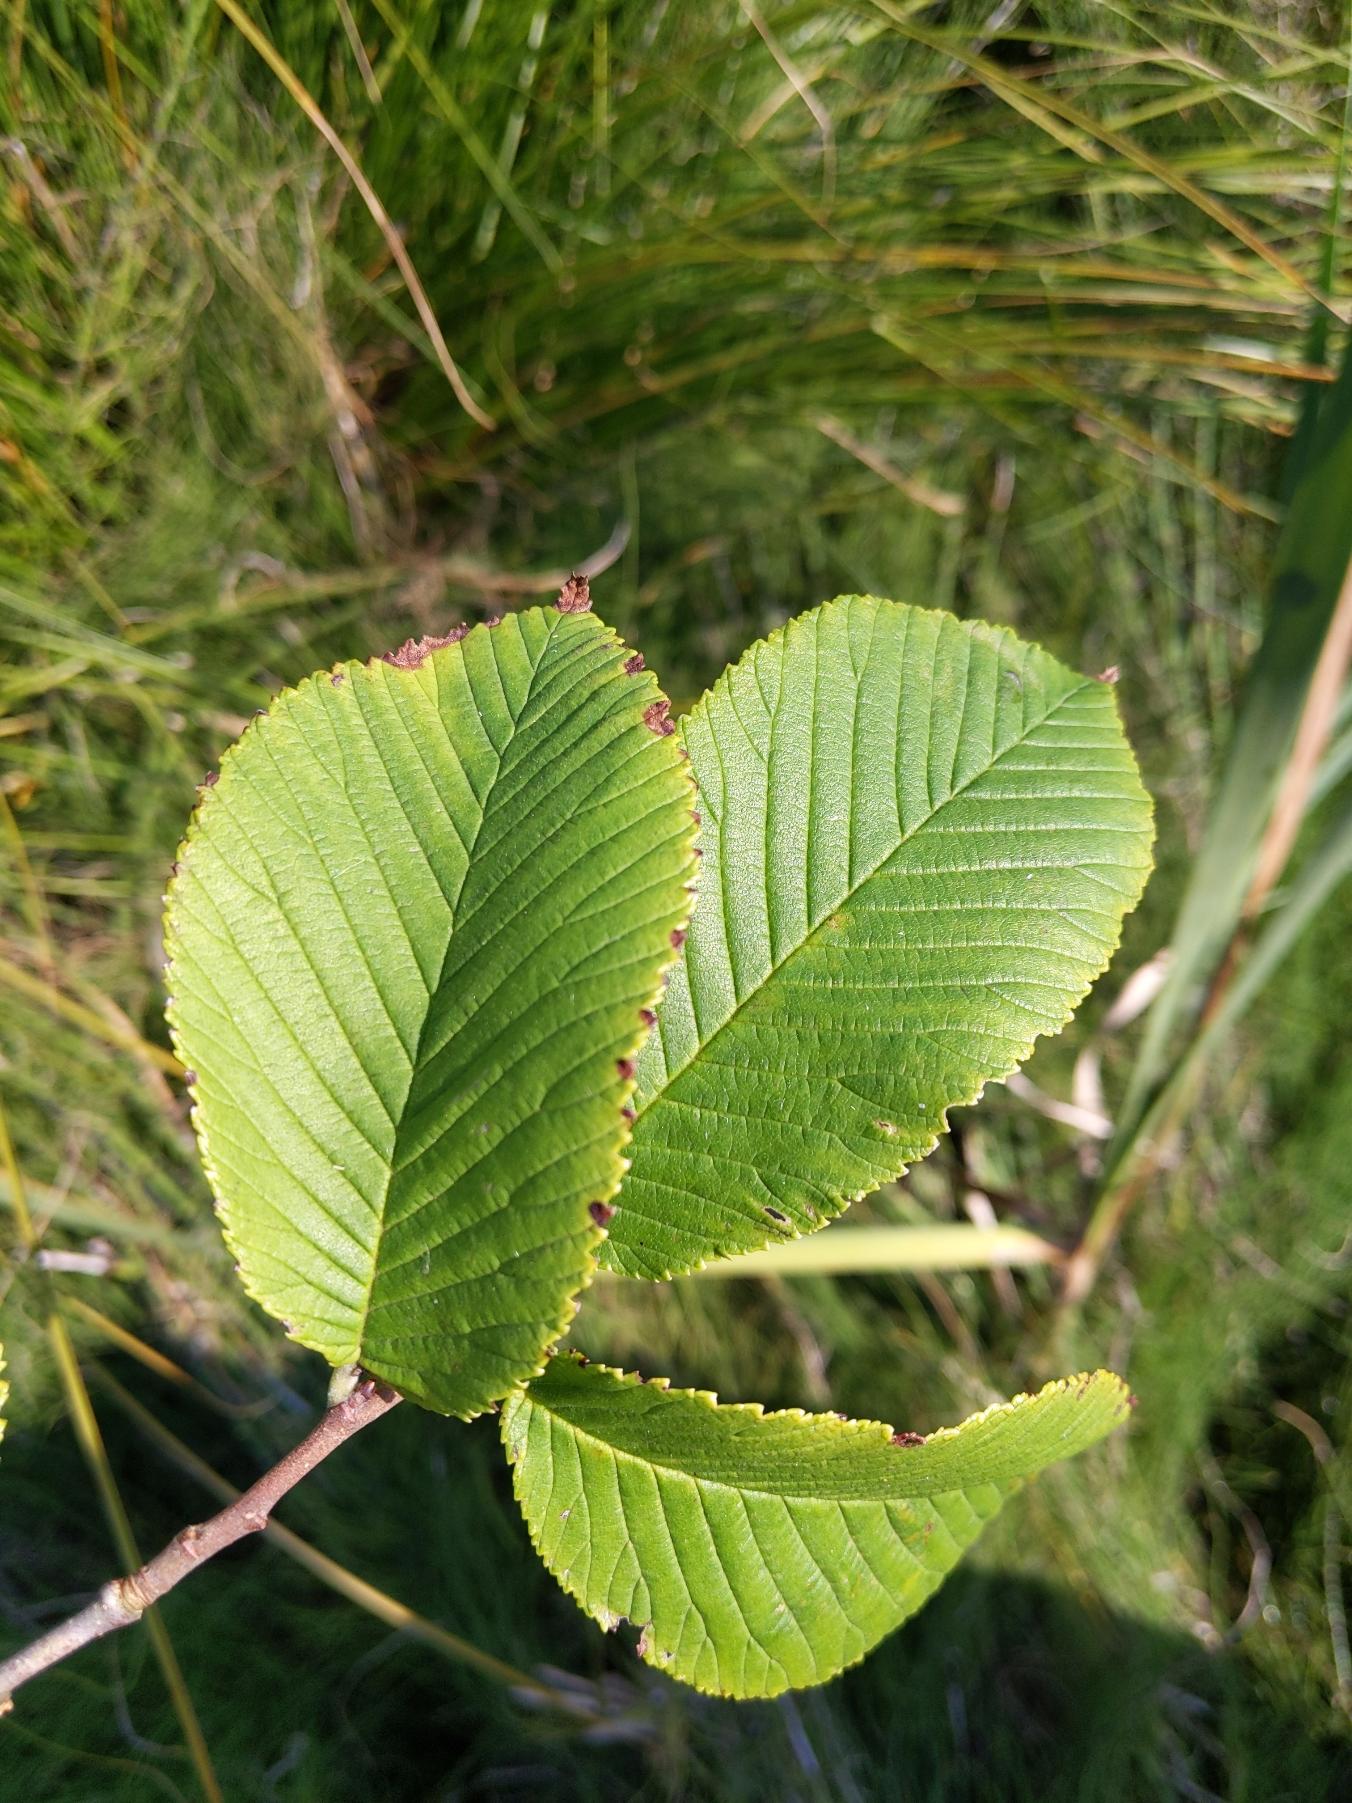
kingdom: Plantae
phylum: Tracheophyta
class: Magnoliopsida
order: Rosales
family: Ulmaceae
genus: Ulmus
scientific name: Ulmus glabra
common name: Skov-elm/storbladet elm
